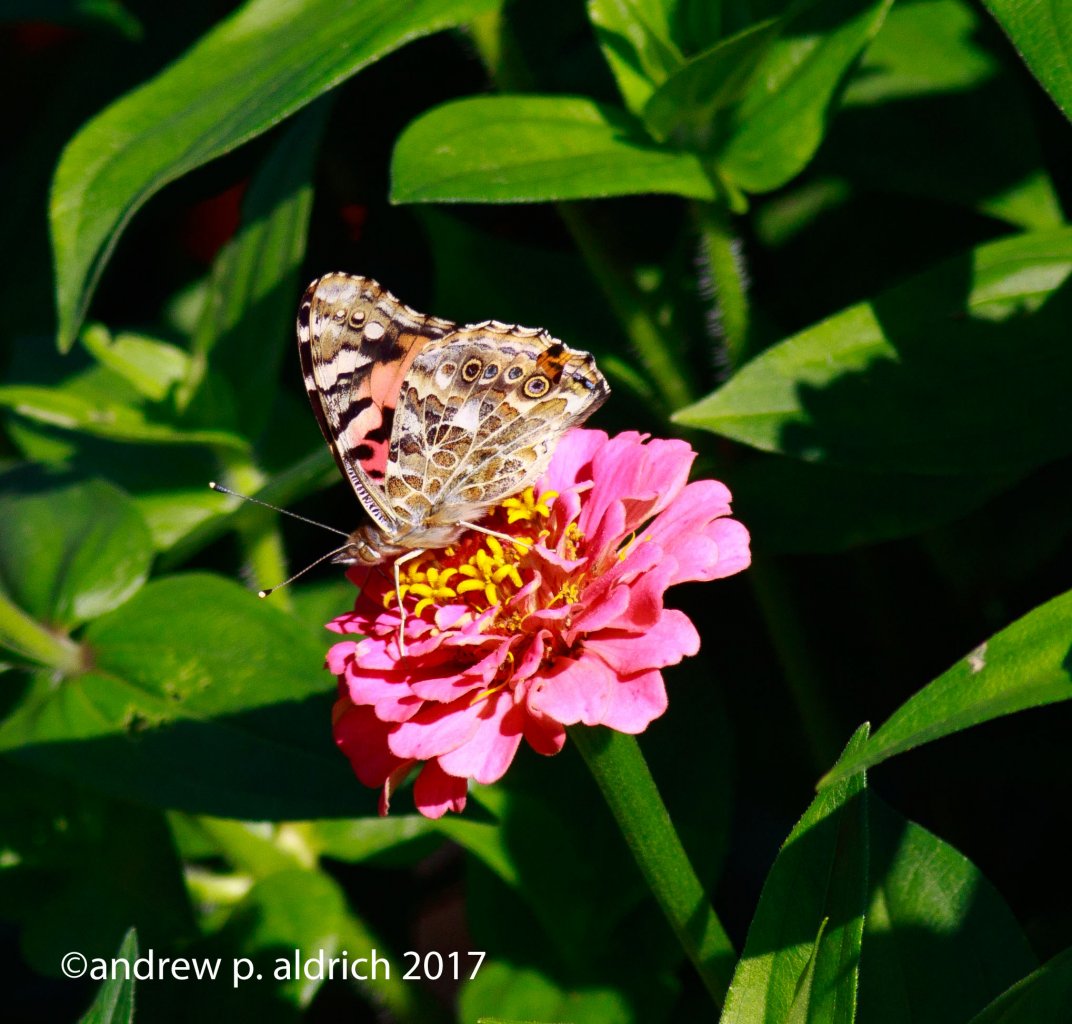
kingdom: Animalia
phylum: Arthropoda
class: Insecta
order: Lepidoptera
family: Nymphalidae
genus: Vanessa
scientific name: Vanessa cardui
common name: Painted Lady
